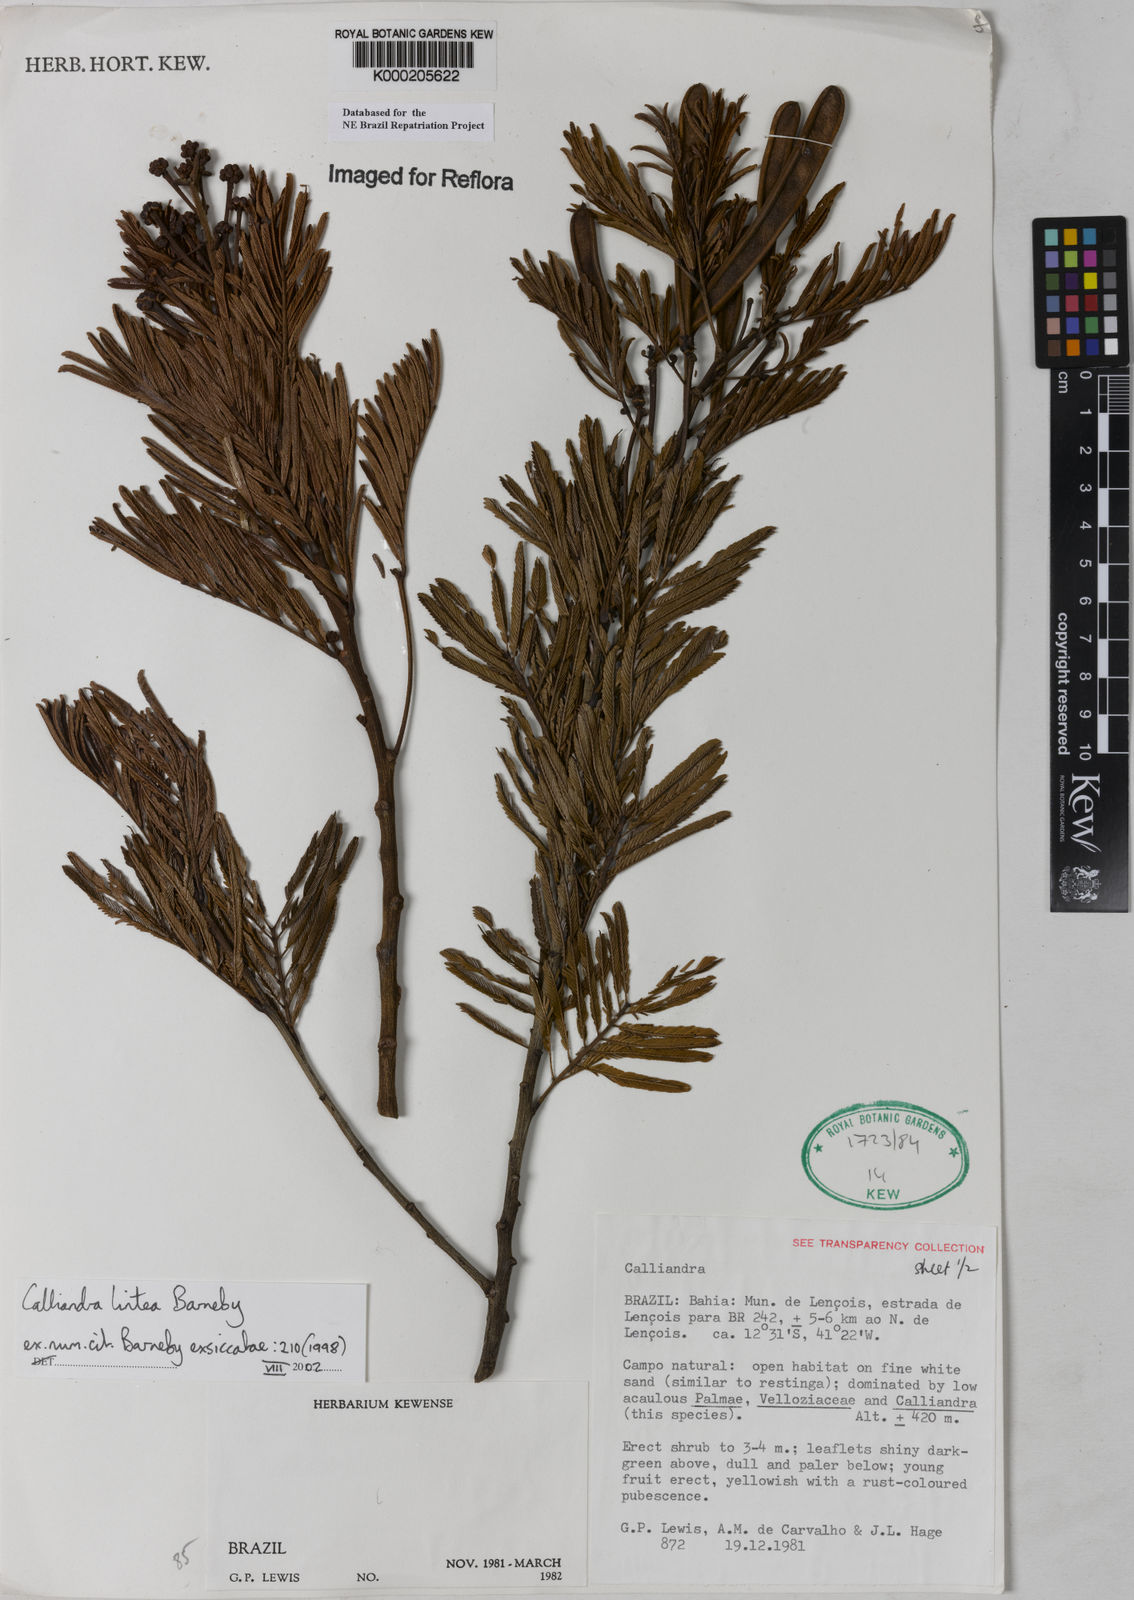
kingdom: Plantae
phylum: Tracheophyta
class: Magnoliopsida
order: Fabales
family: Fabaceae
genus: Calliandra
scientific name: Calliandra lintea
